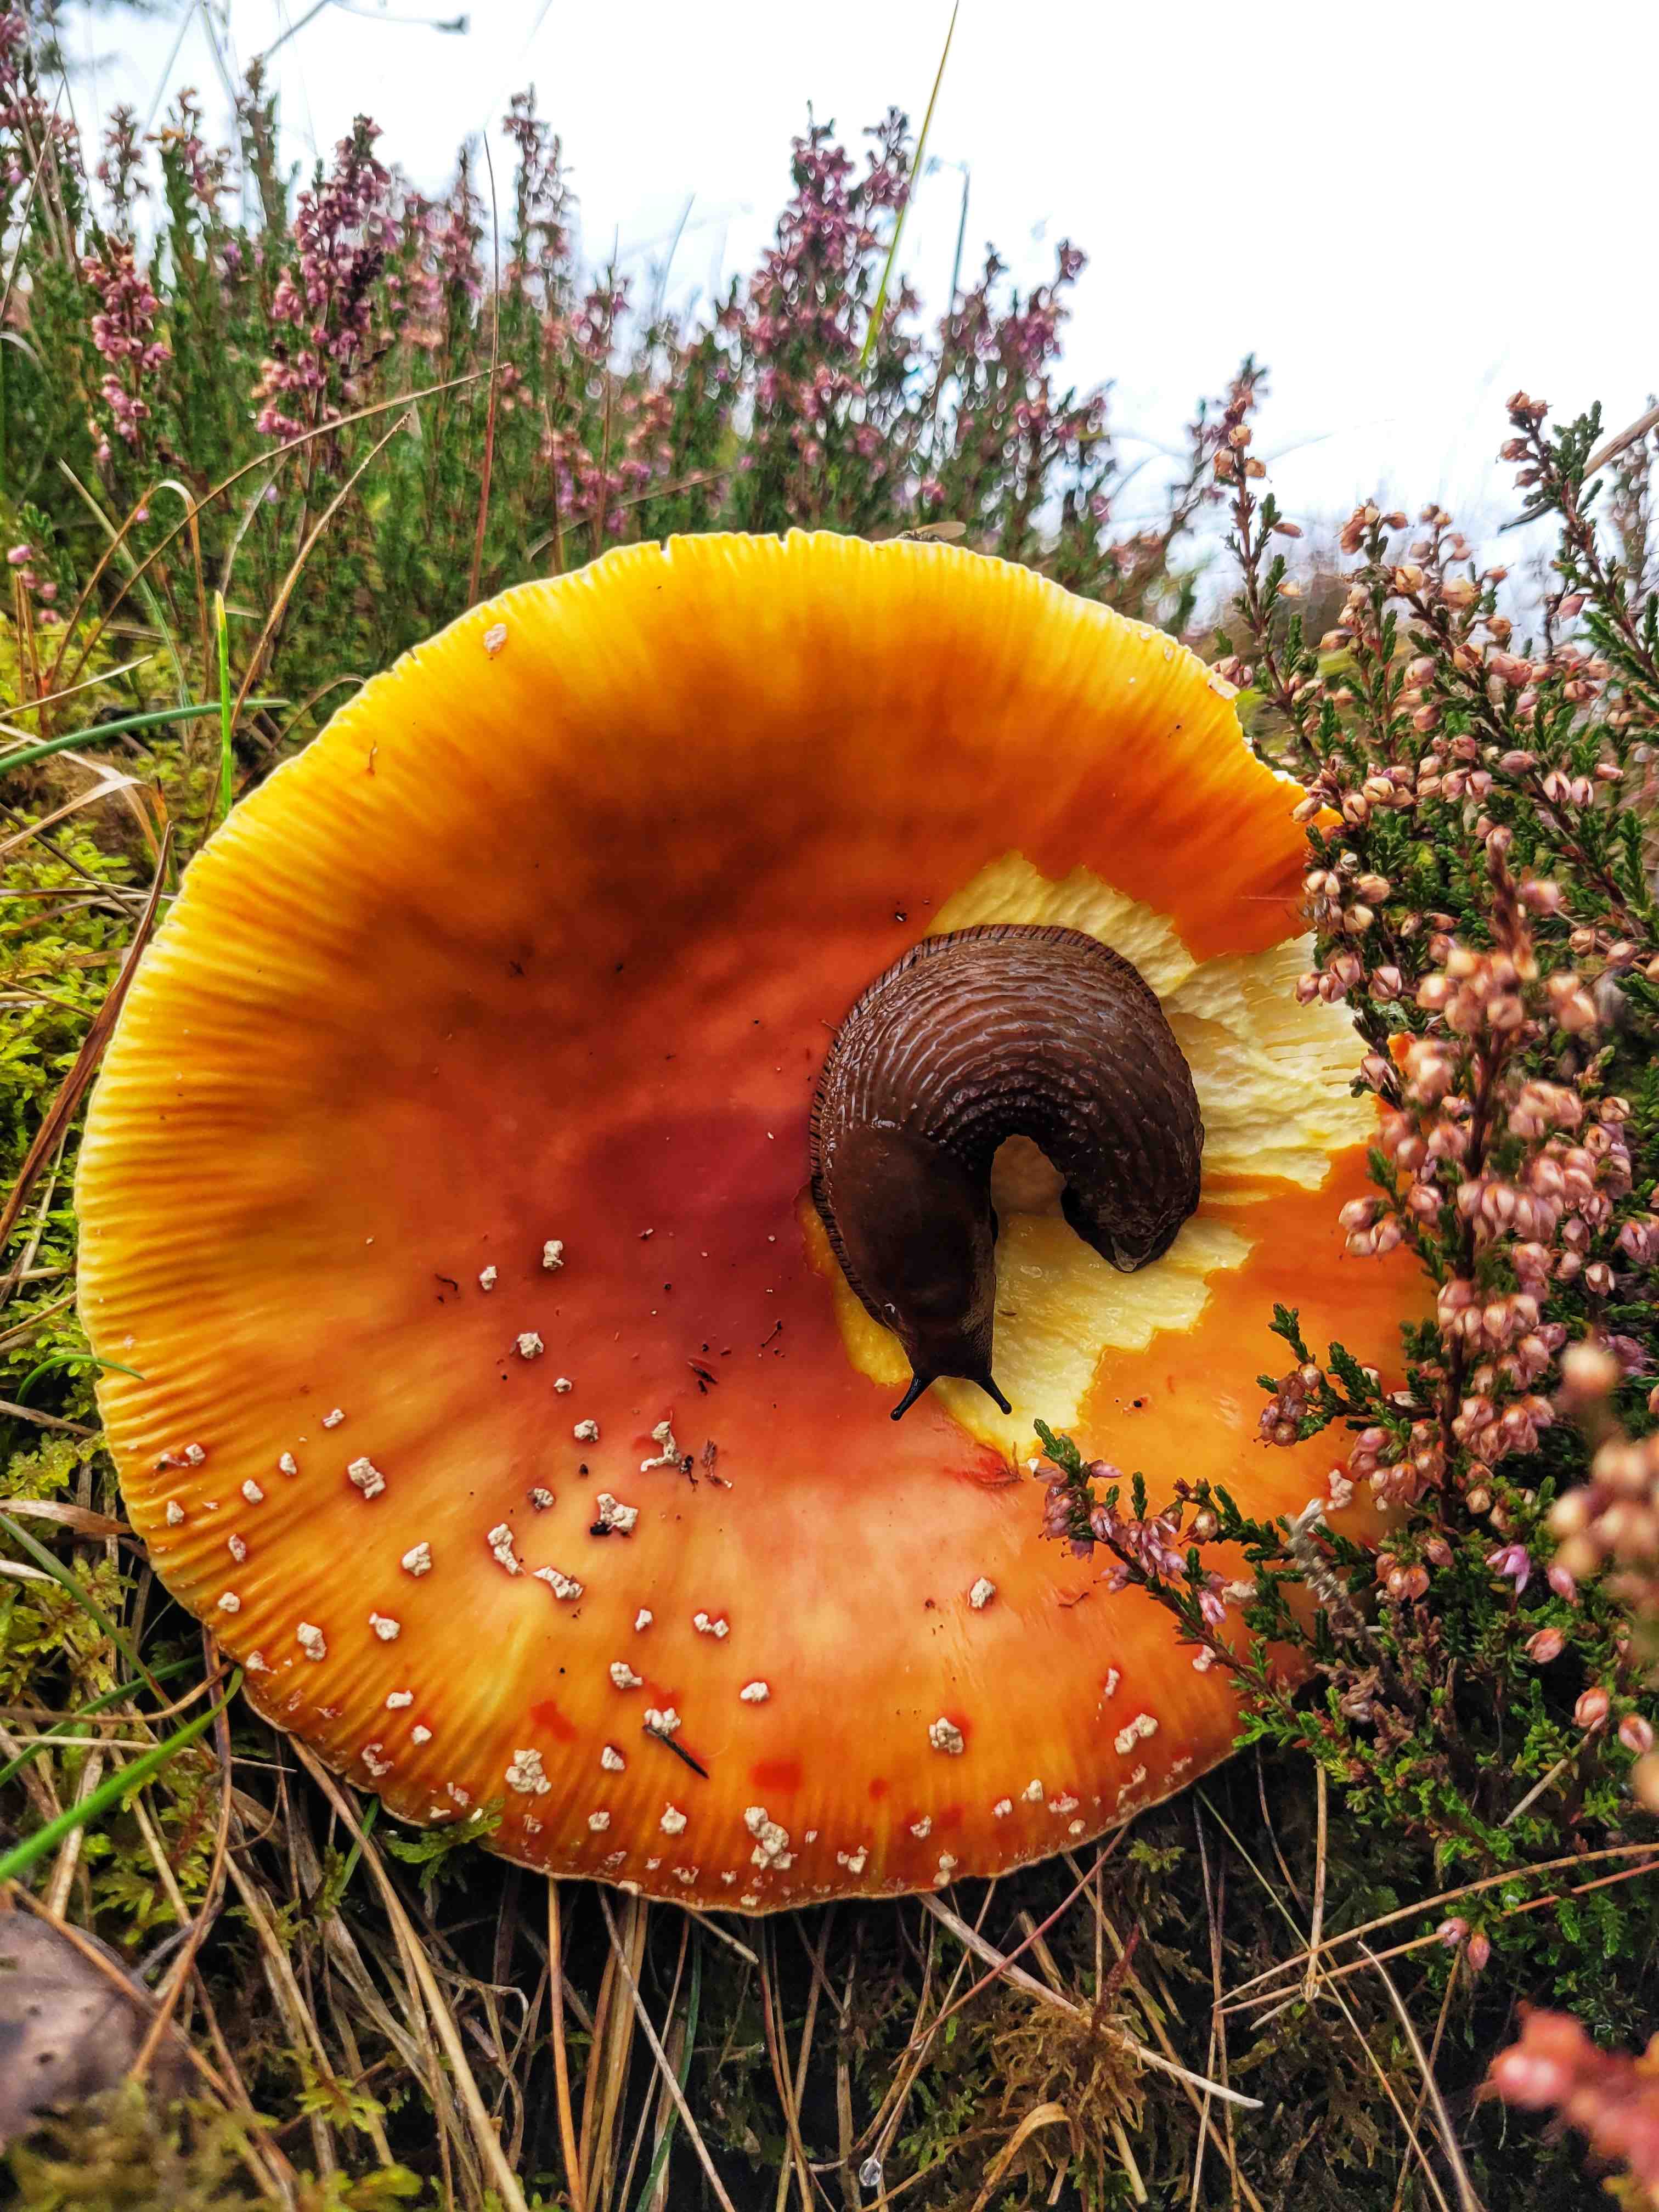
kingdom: Fungi
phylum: Basidiomycota
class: Agaricomycetes
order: Agaricales
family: Amanitaceae
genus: Amanita
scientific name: Amanita muscaria
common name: rød fluesvamp
